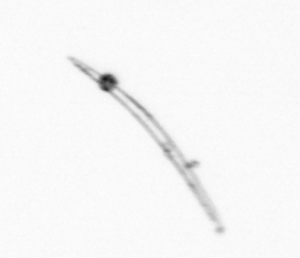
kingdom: Chromista
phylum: Ochrophyta
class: Bacillariophyceae
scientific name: Bacillariophyceae
